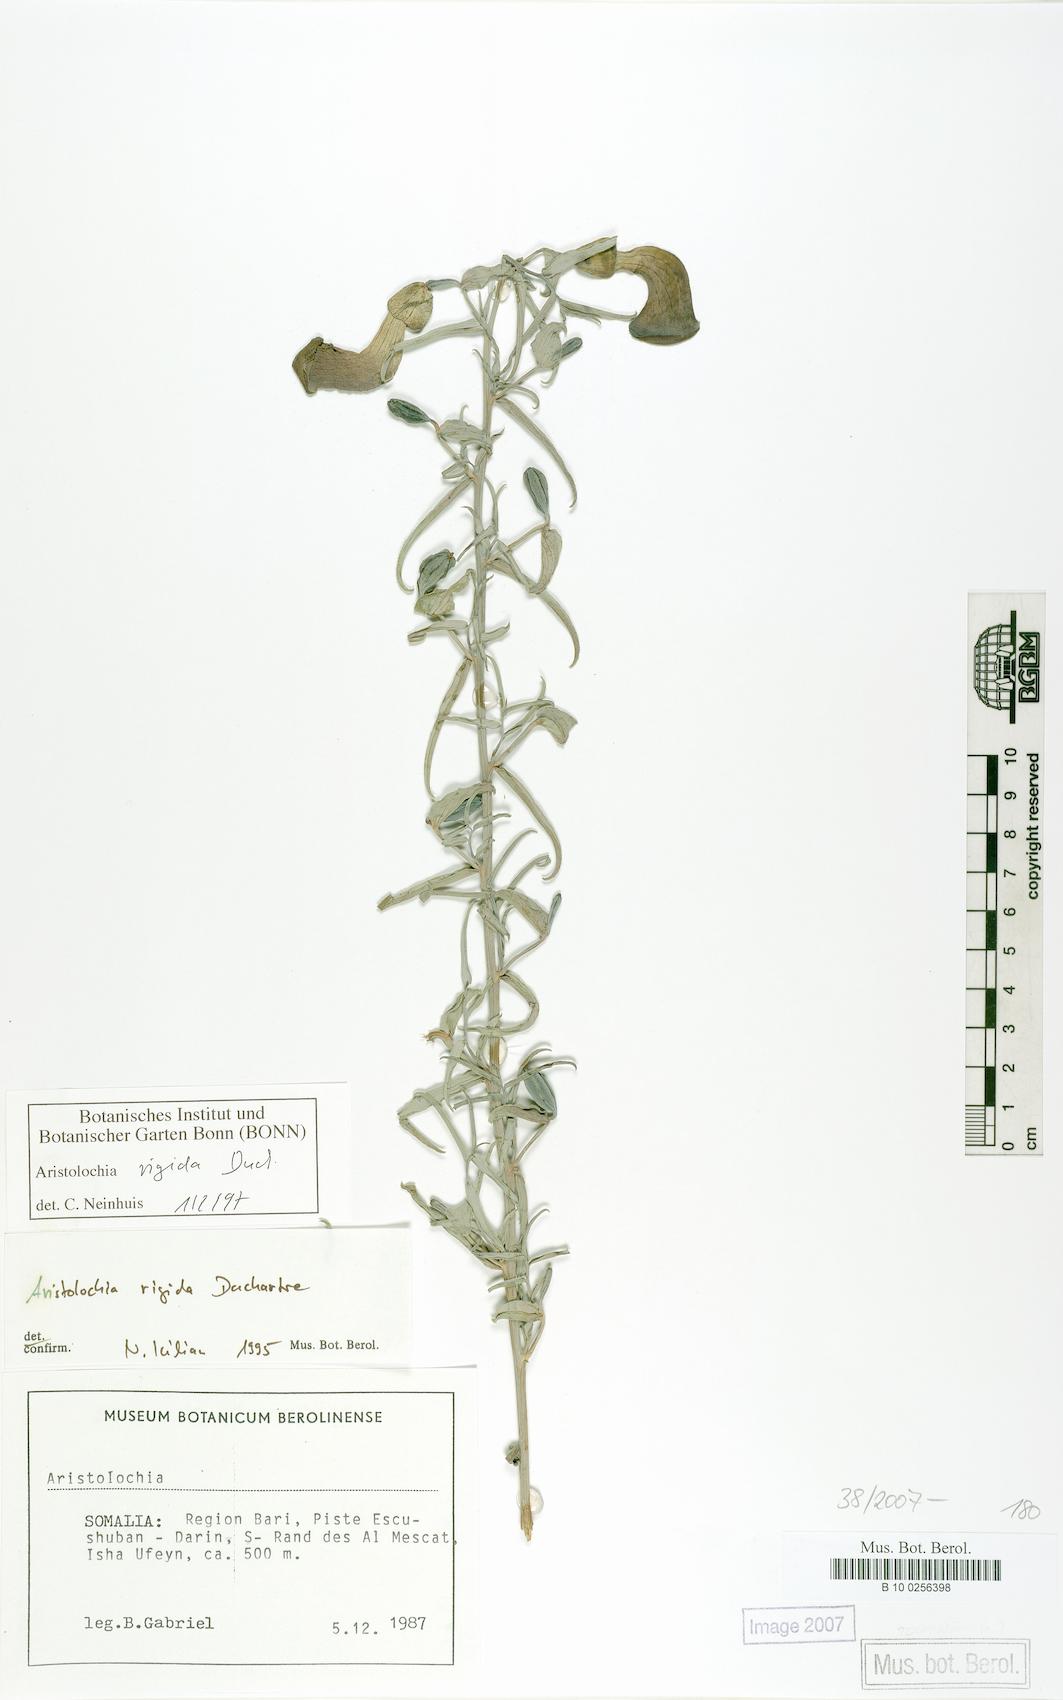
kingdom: Plantae
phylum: Tracheophyta
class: Magnoliopsida
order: Piperales
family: Aristolochiaceae
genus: Aristolochia
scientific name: Aristolochia rigida
